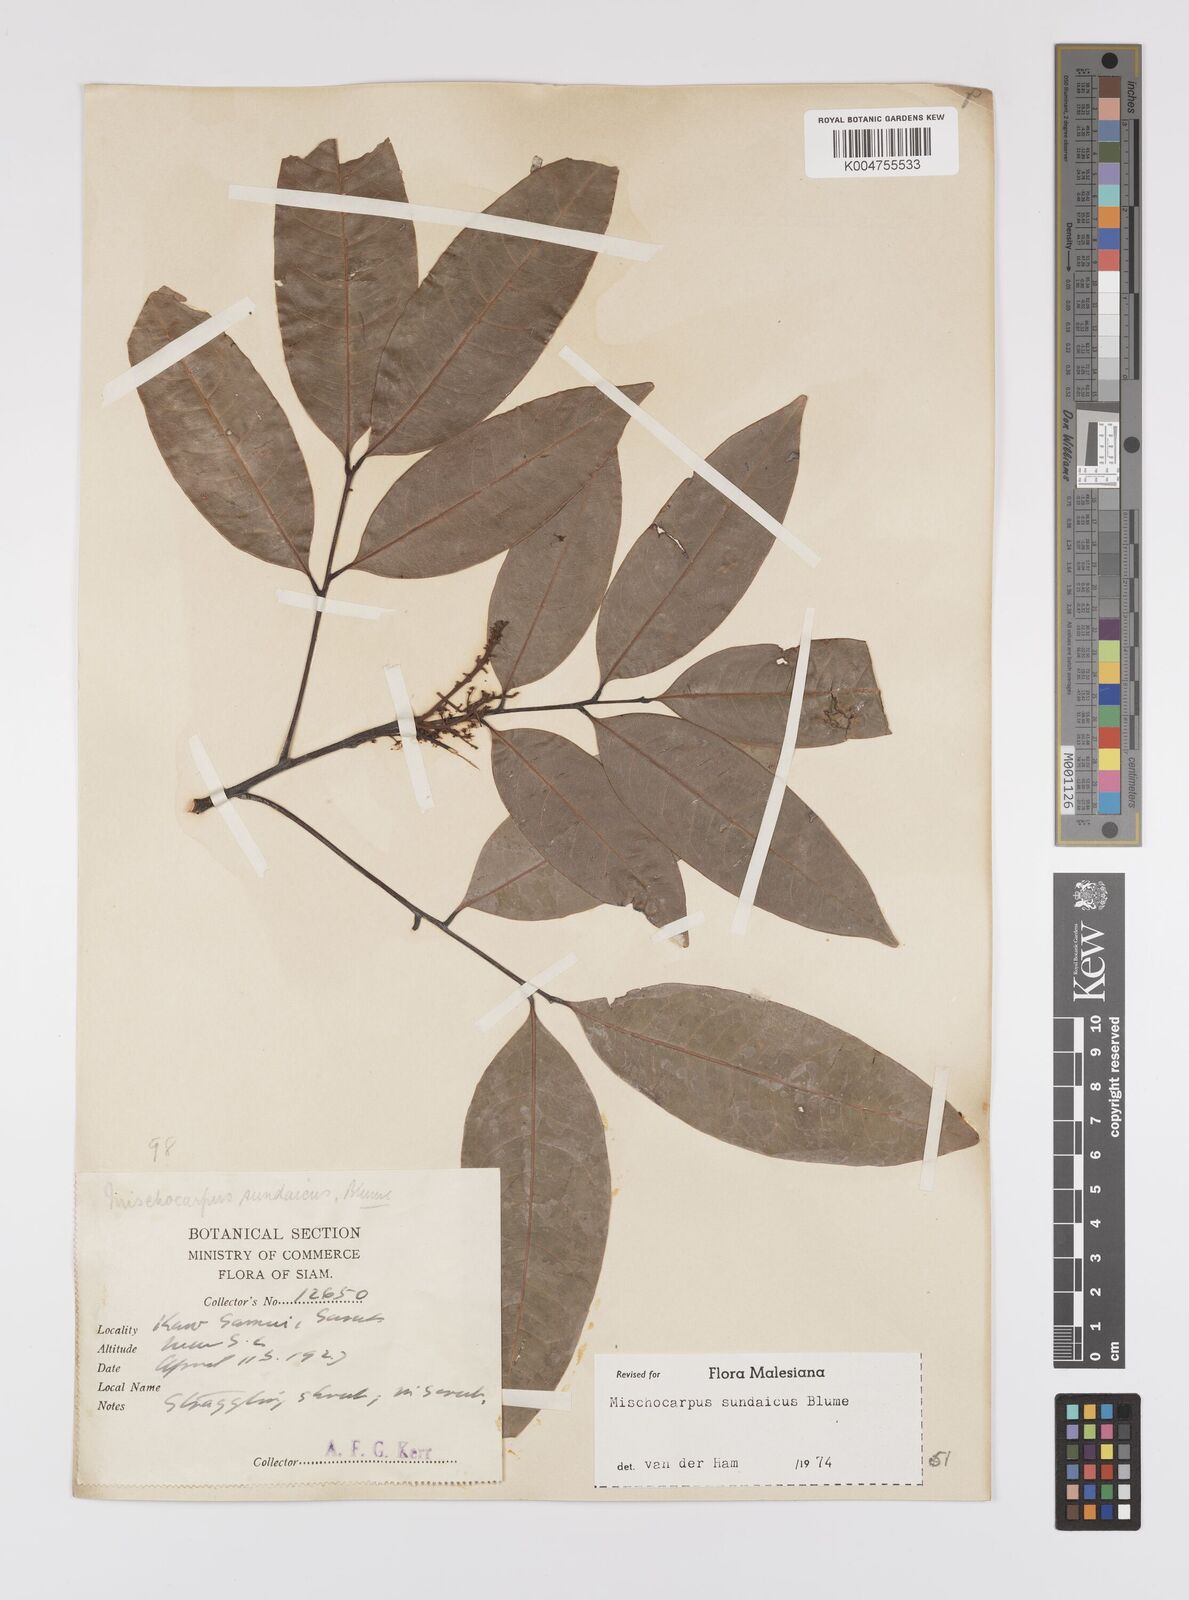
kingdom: Plantae
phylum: Tracheophyta
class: Magnoliopsida
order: Sapindales
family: Sapindaceae
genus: Mischocarpus
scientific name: Mischocarpus sundaicus
